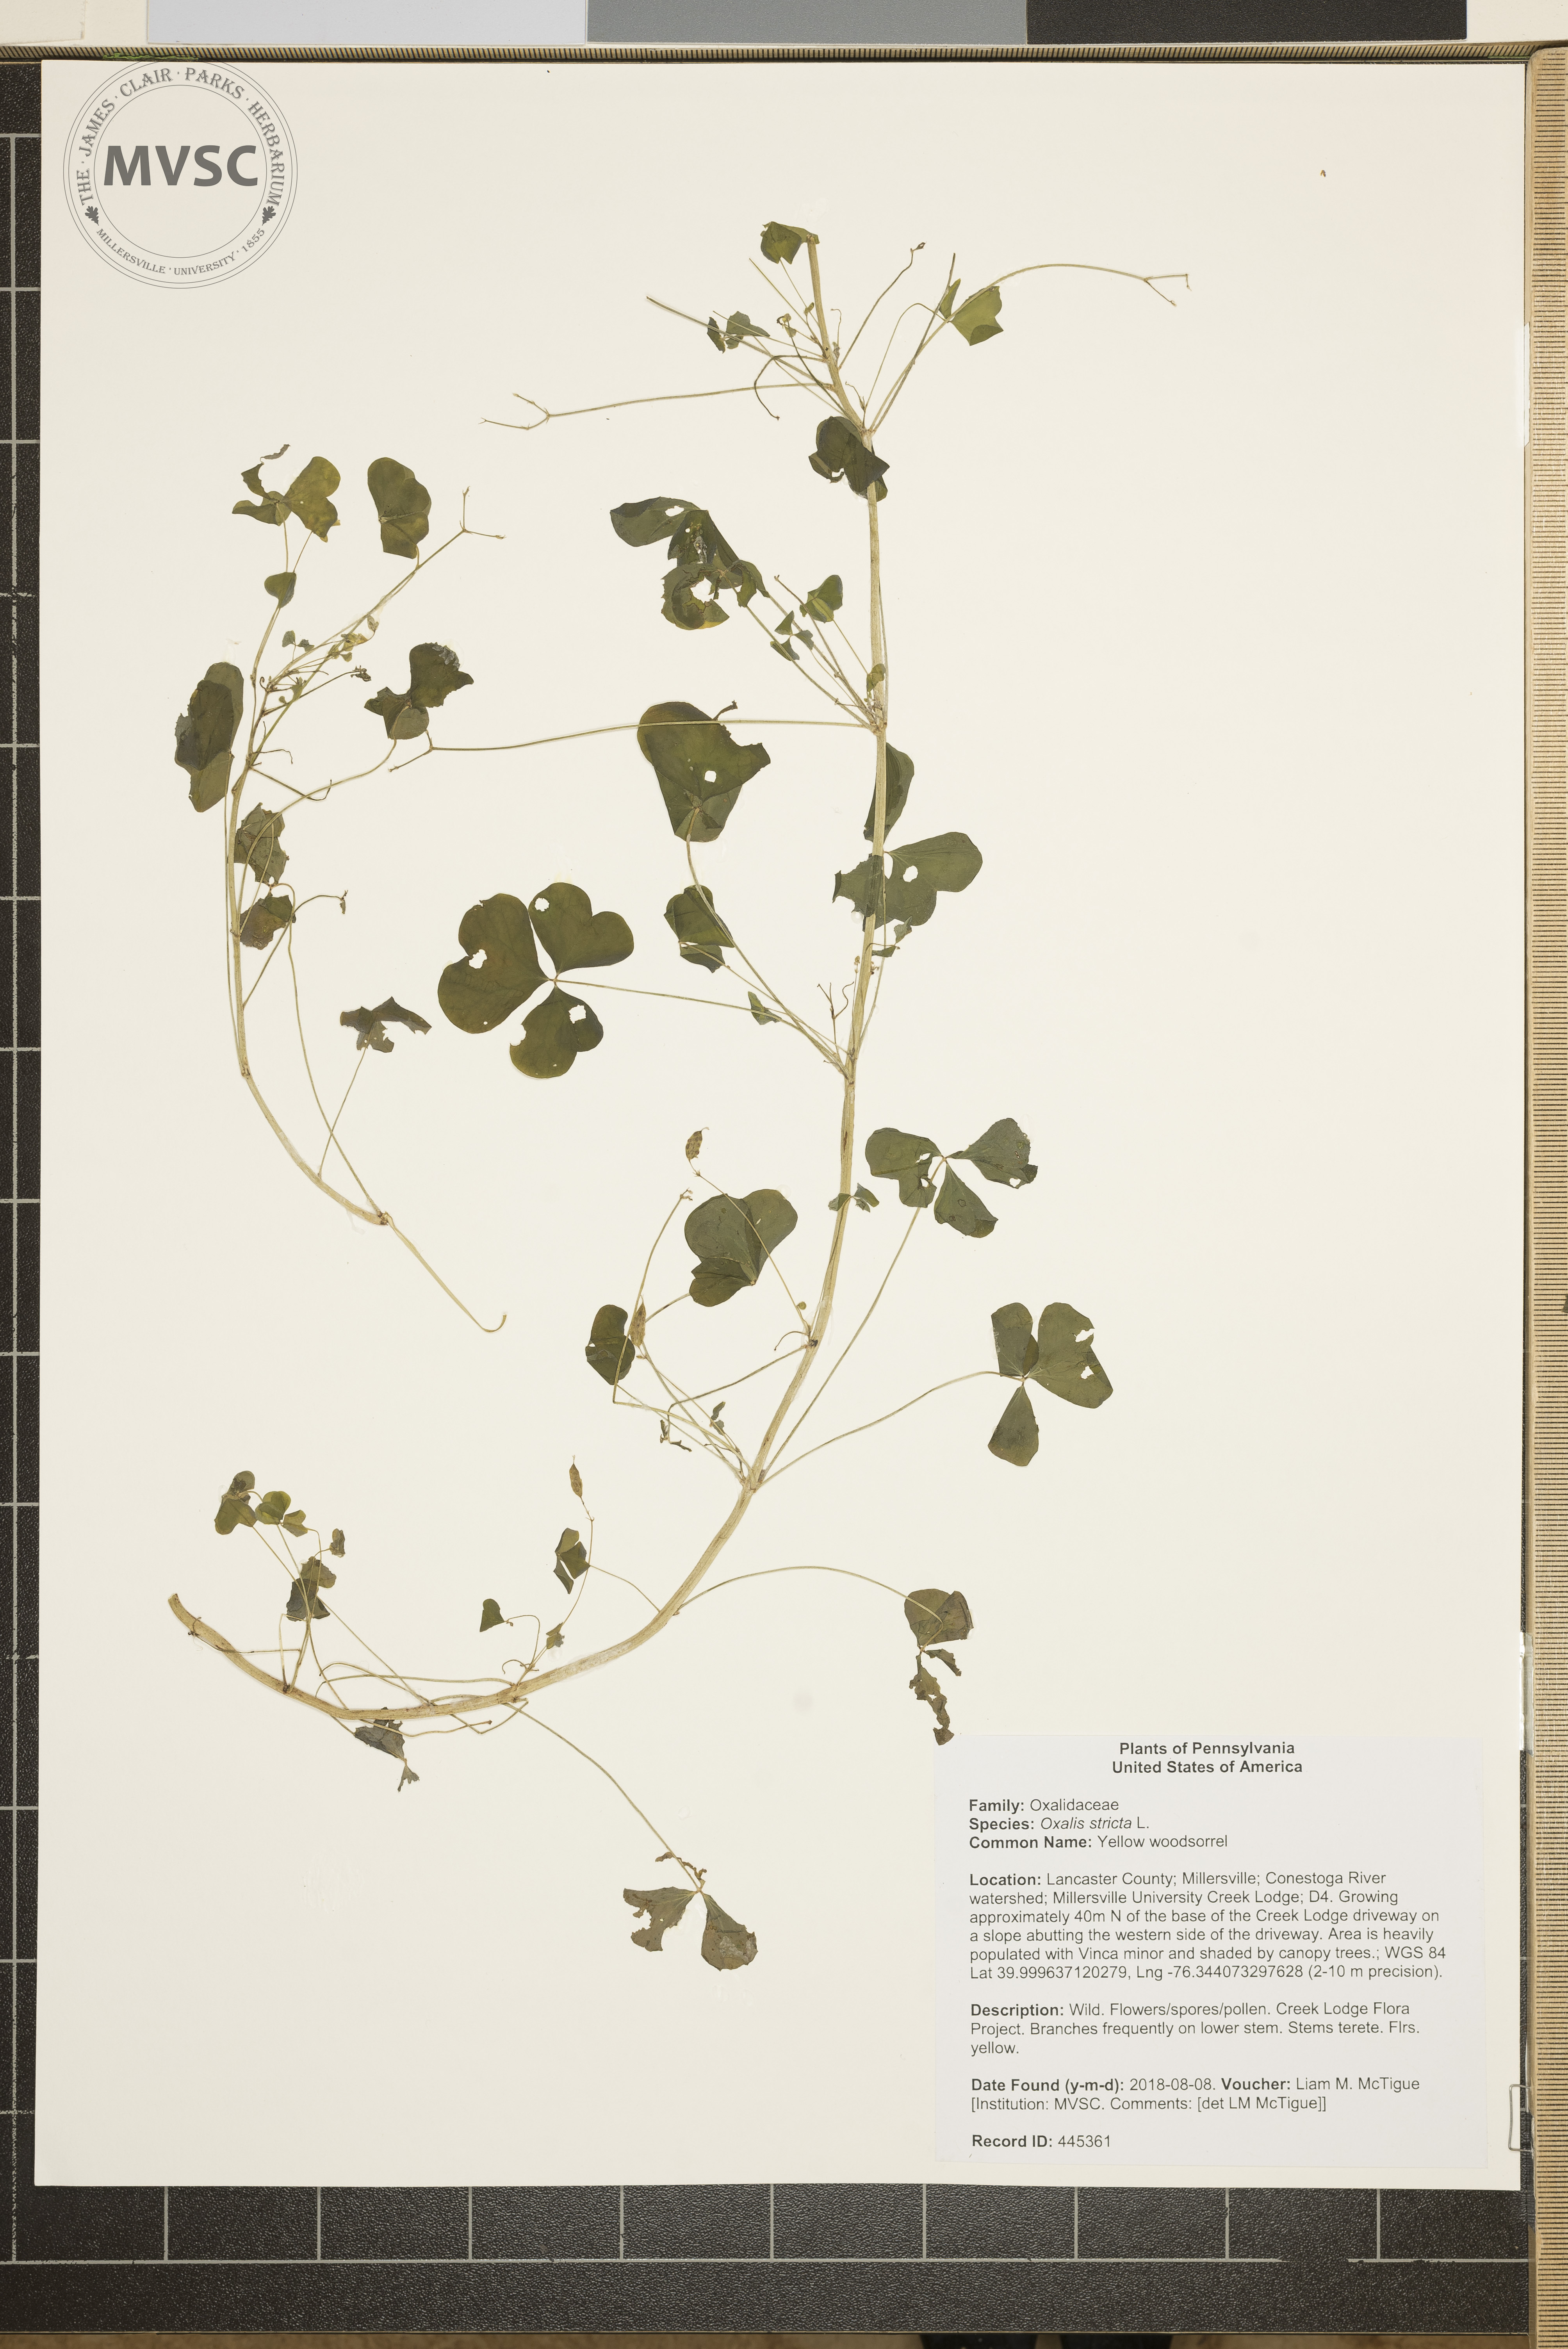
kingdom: Plantae
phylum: Tracheophyta
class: Magnoliopsida
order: Oxalidales
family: Oxalidaceae
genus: Oxalis
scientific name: Oxalis stricta
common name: Yellow woodsorrel
